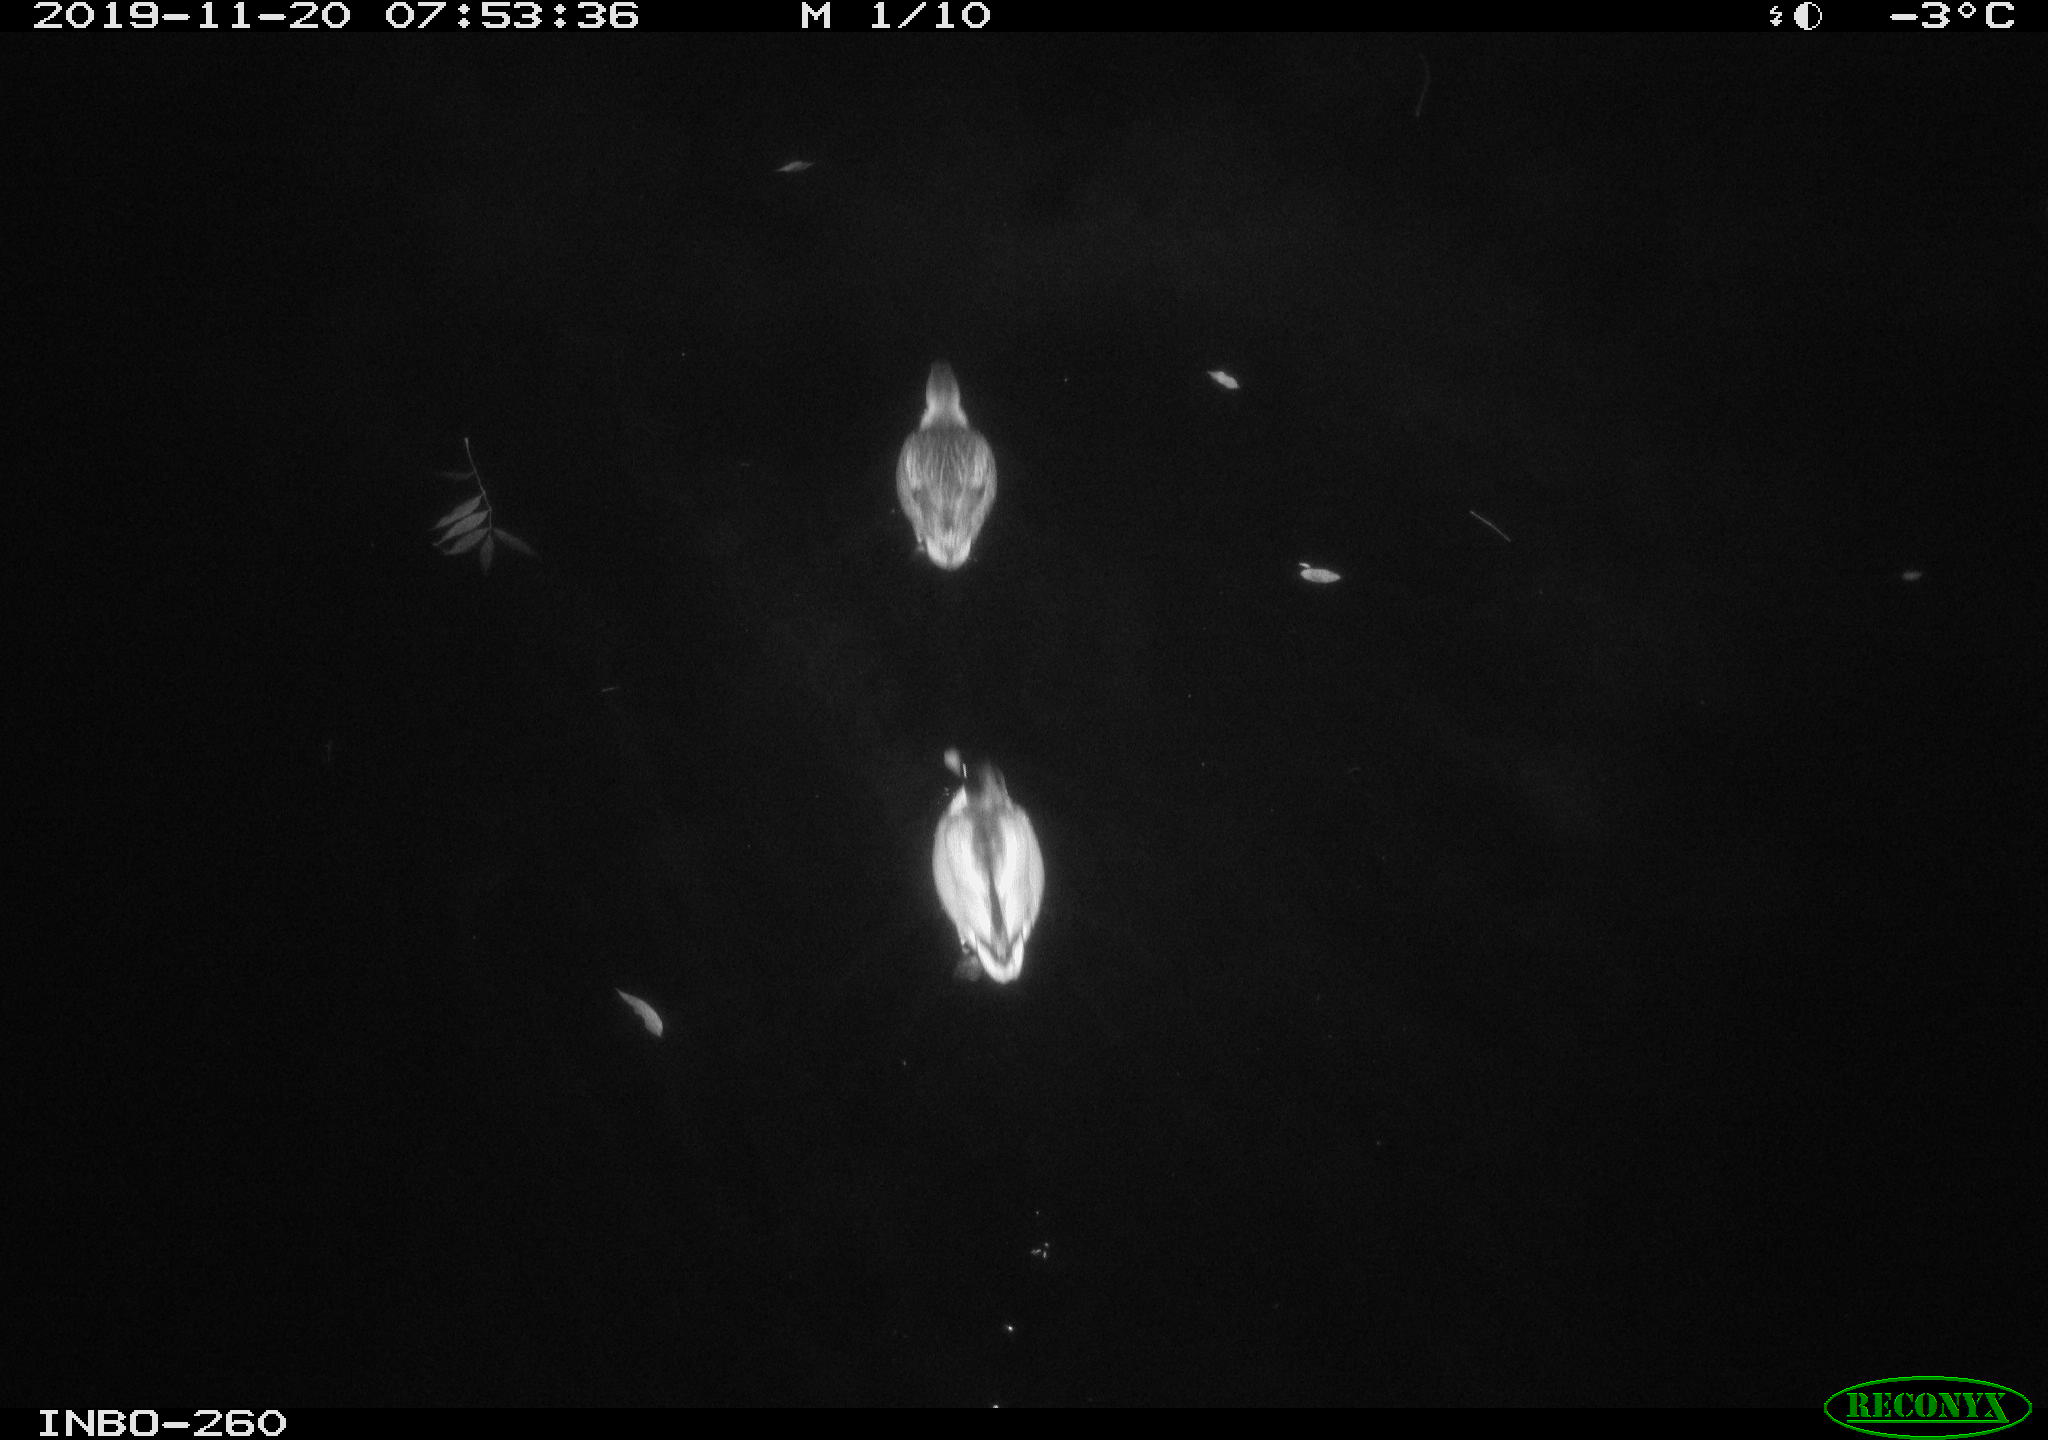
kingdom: Animalia
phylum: Chordata
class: Aves
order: Anseriformes
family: Anatidae
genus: Anas
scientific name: Anas platyrhynchos
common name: Mallard
